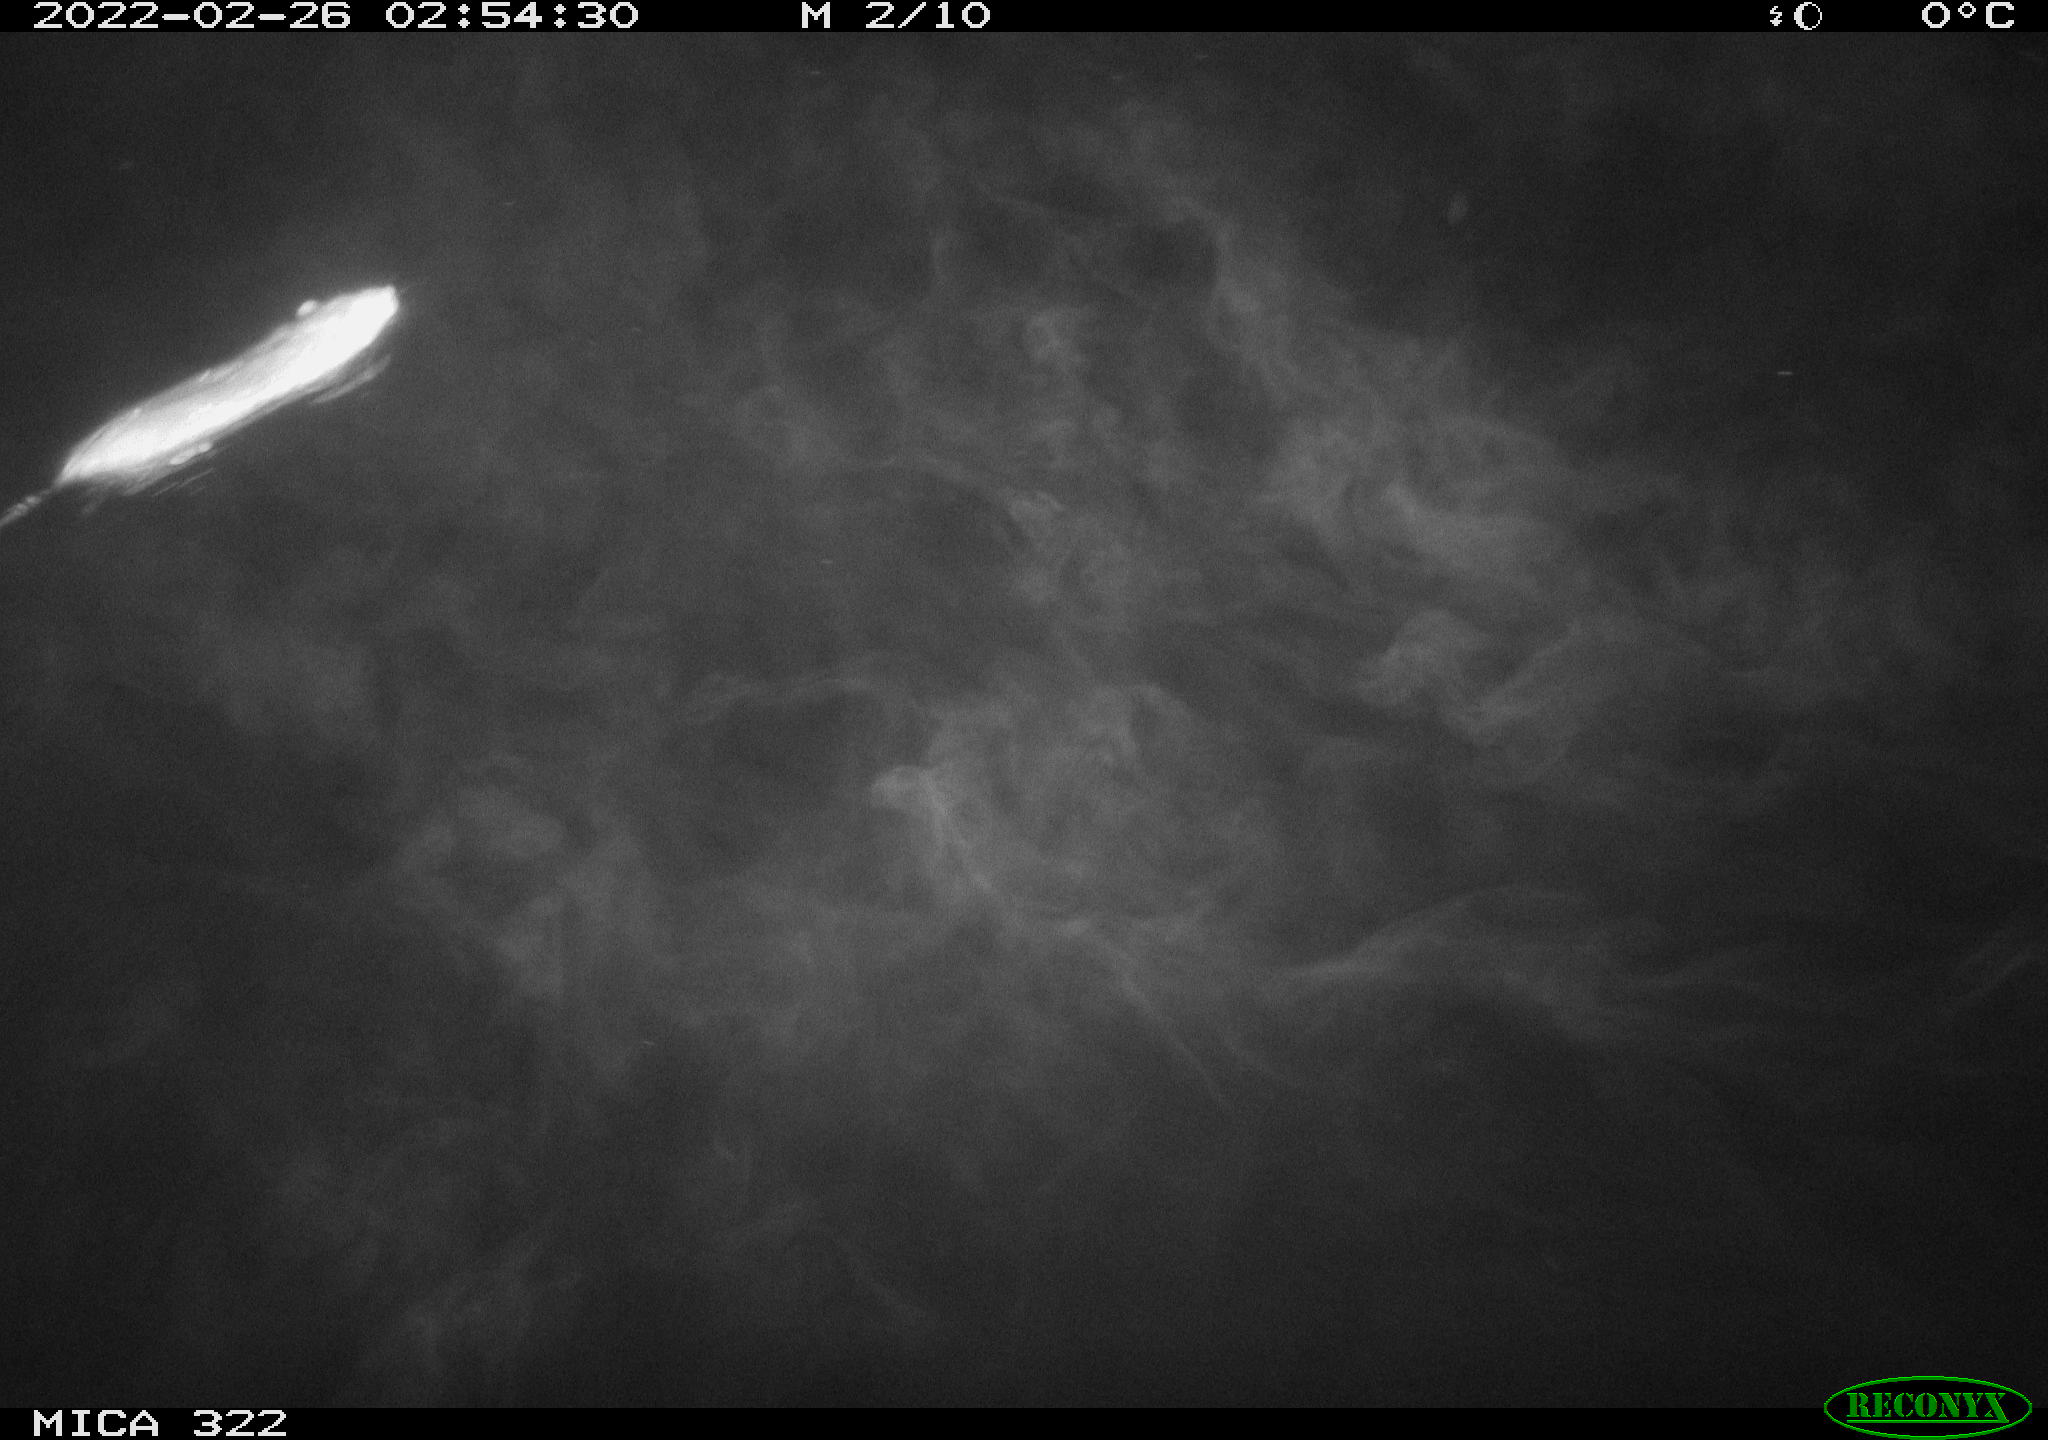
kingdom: Animalia
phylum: Chordata
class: Mammalia
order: Rodentia
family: Muridae
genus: Rattus
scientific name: Rattus norvegicus
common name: Brown rat
